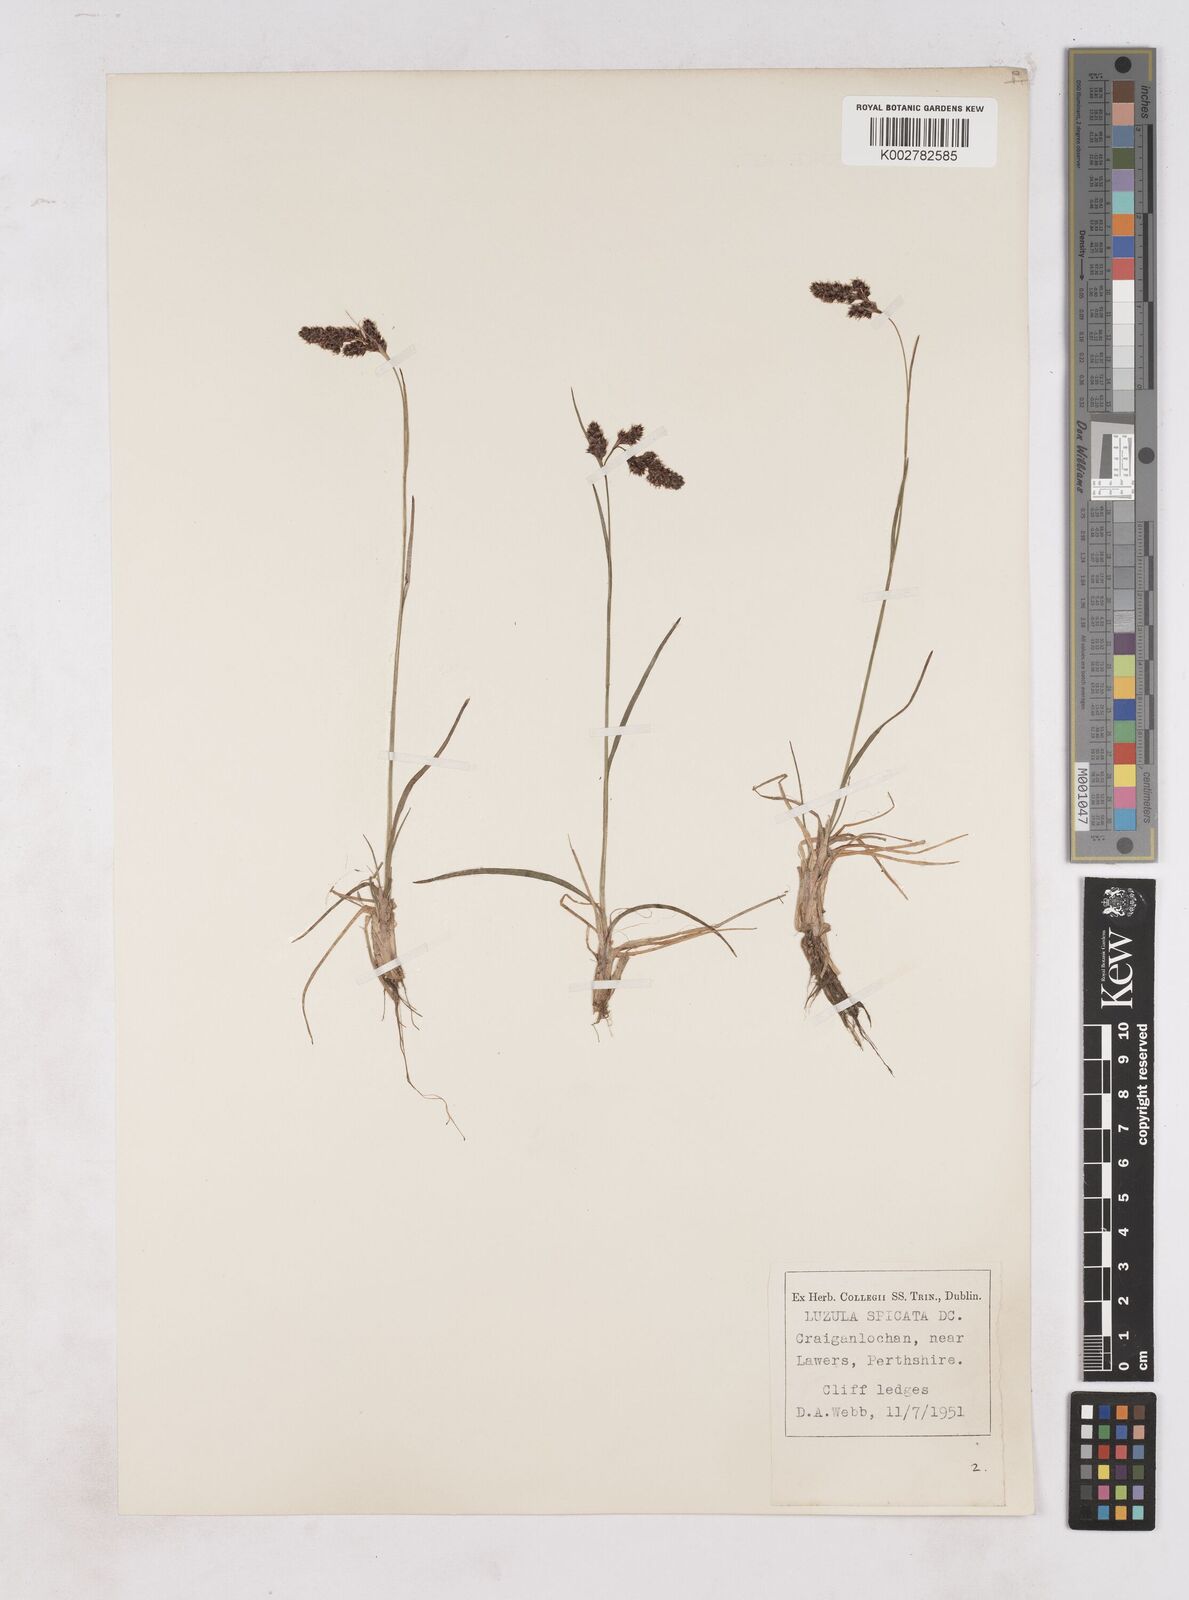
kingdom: Plantae
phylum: Tracheophyta
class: Liliopsida
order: Poales
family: Juncaceae
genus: Luzula
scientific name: Luzula spicata
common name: Spiked wood-rush
